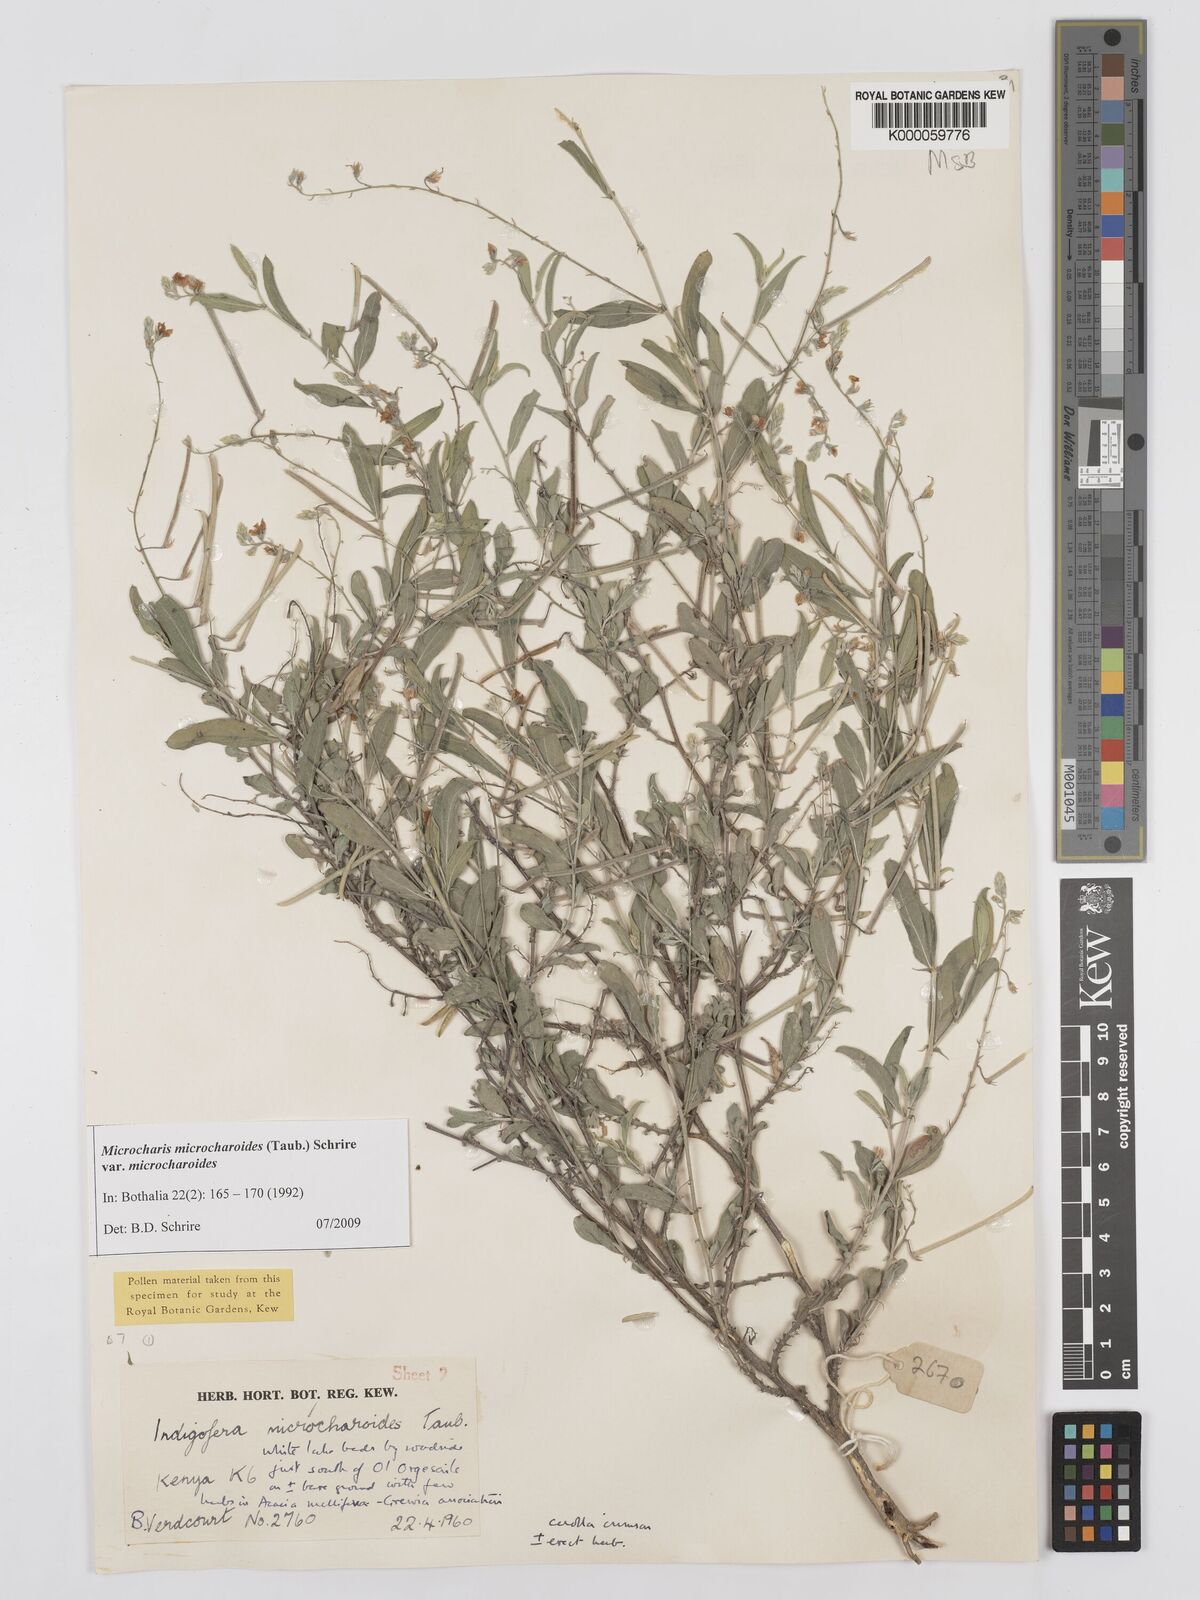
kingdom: Plantae
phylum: Tracheophyta
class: Magnoliopsida
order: Fabales
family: Fabaceae
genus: Microcharis
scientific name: Microcharis microcharoides
